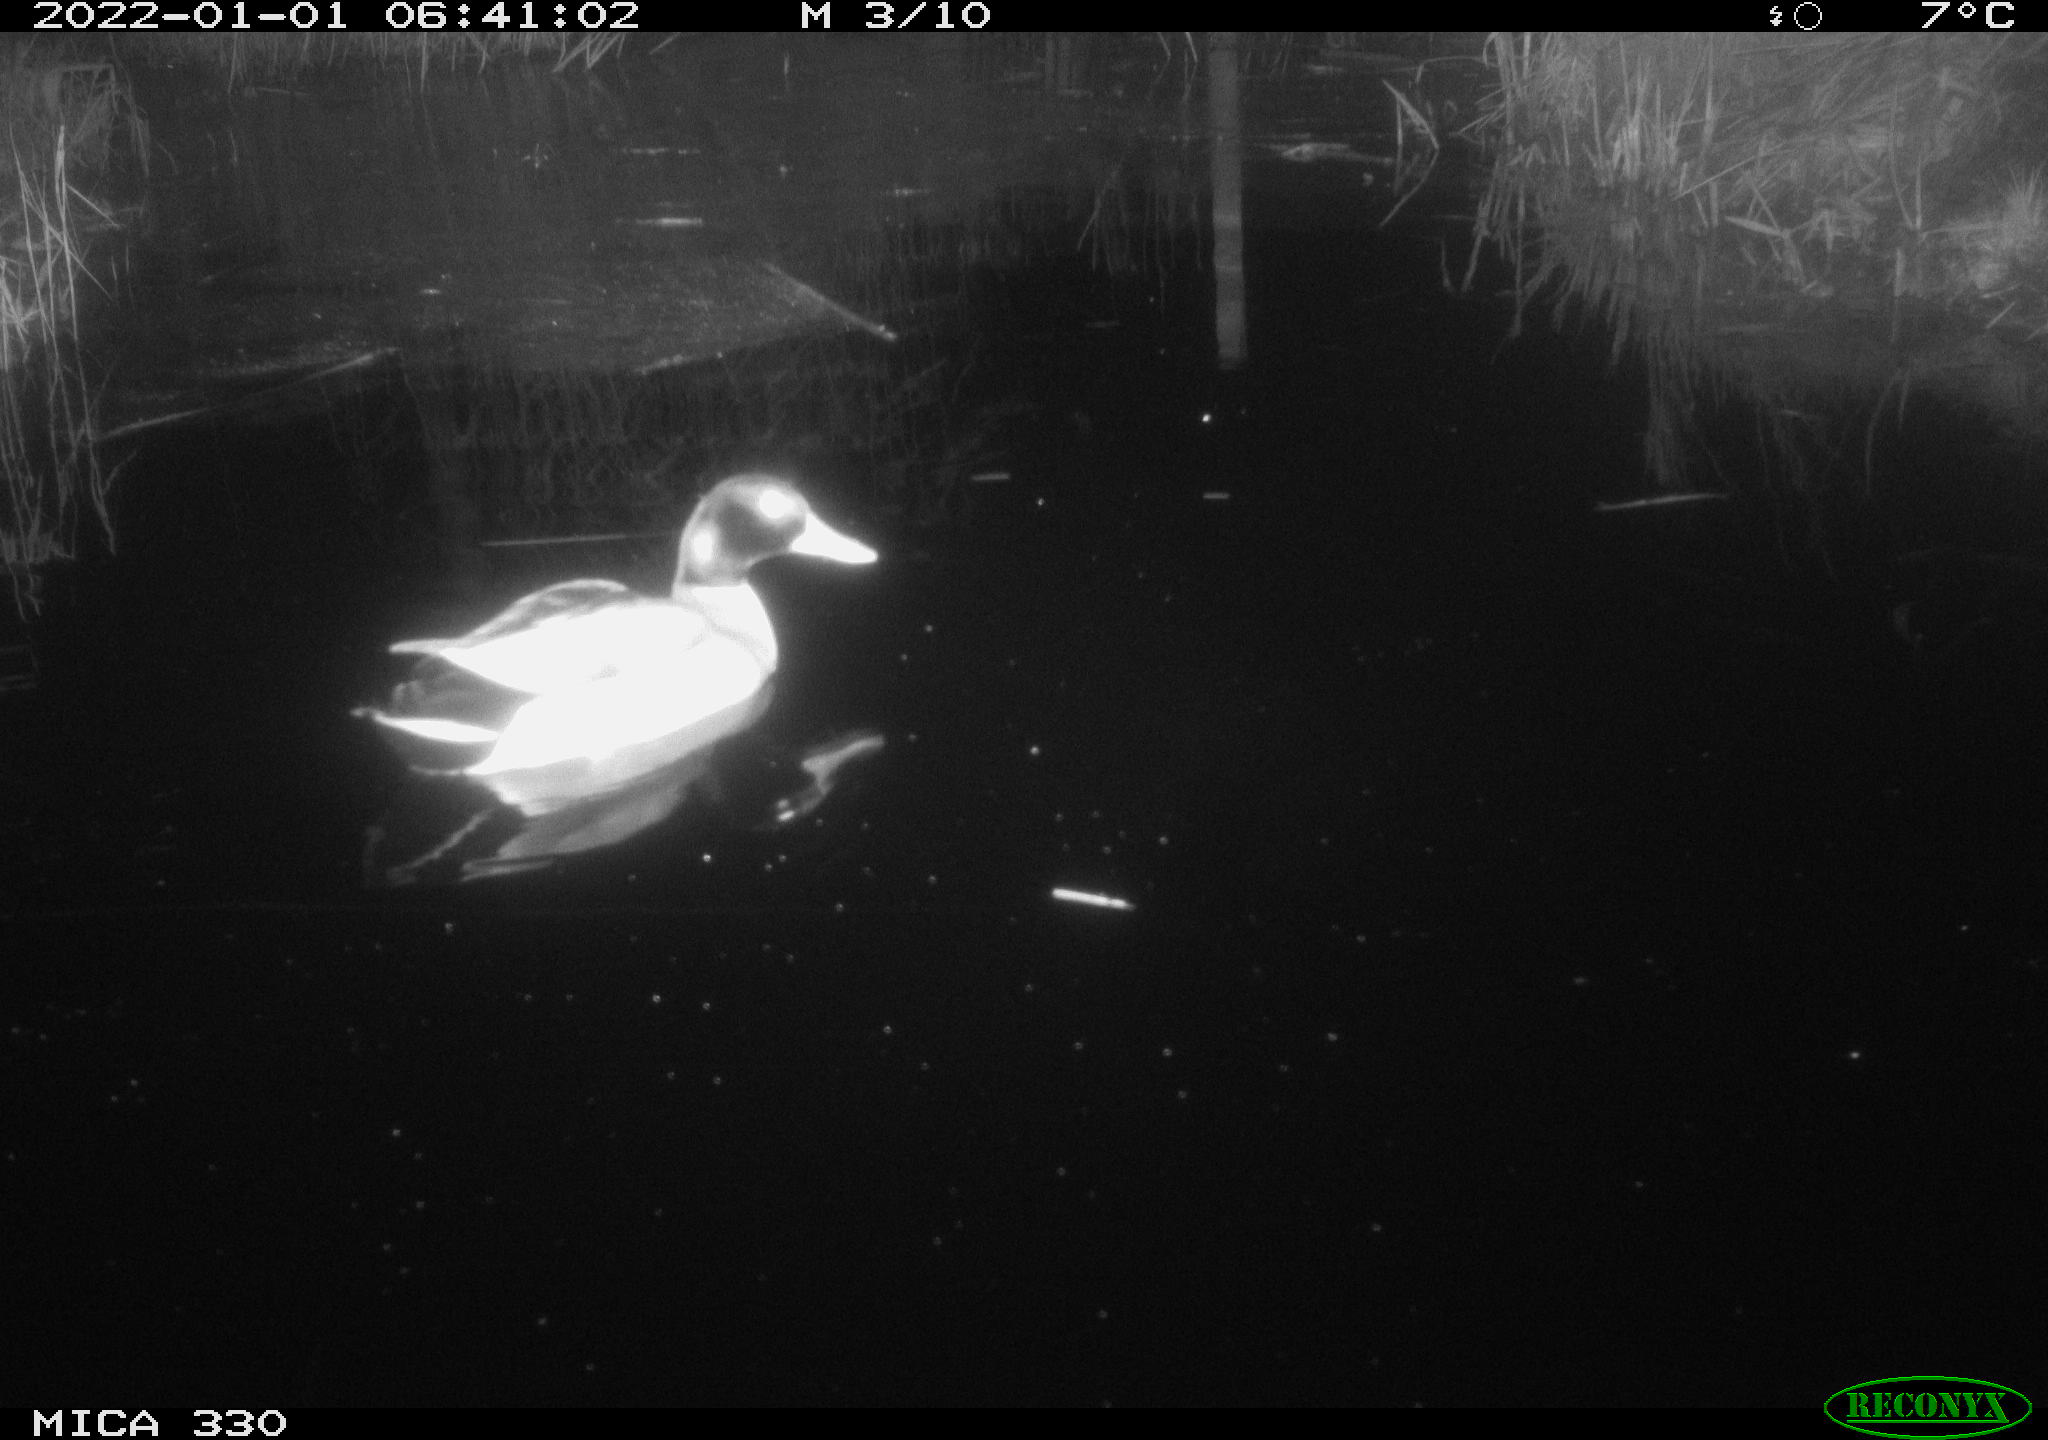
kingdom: Animalia
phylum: Chordata
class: Aves
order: Anseriformes
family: Anatidae
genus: Anas
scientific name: Anas platyrhynchos
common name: Mallard
